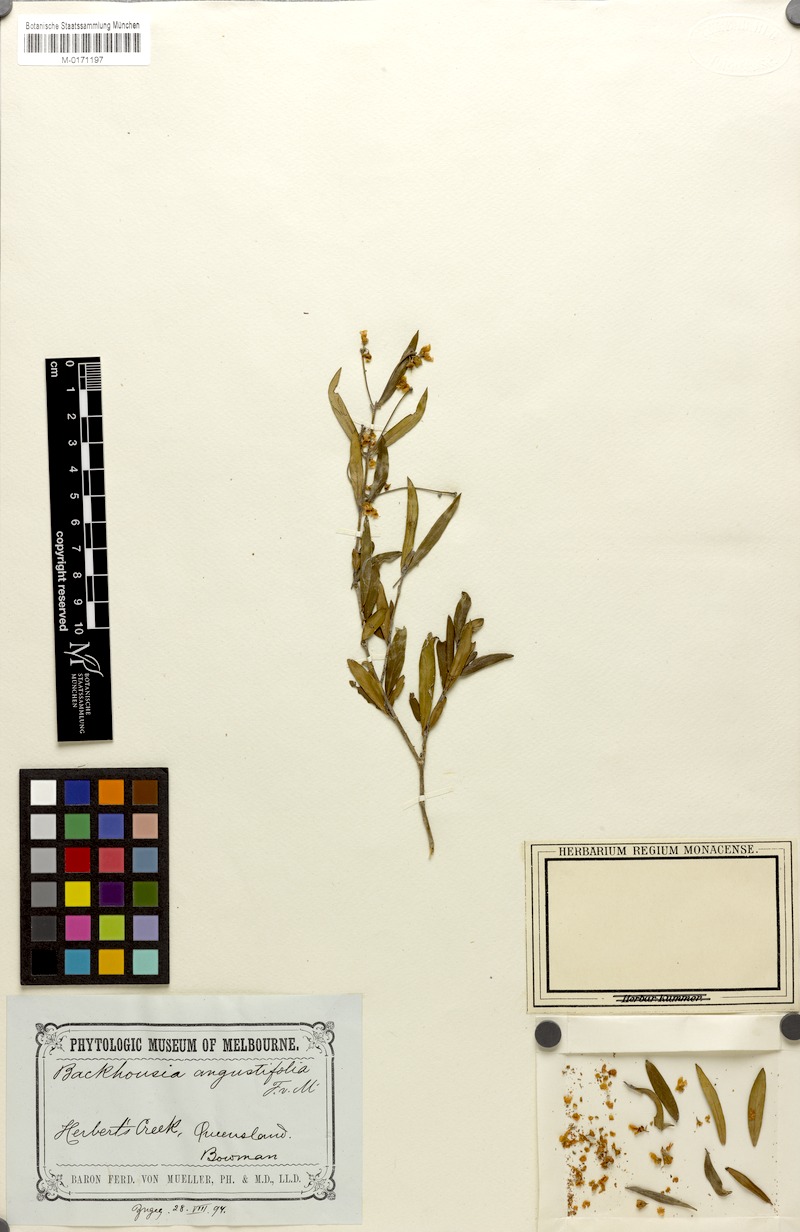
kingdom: Plantae
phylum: Tracheophyta
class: Magnoliopsida
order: Myrtales
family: Myrtaceae
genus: Backhousia
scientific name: Backhousia angustifolia
